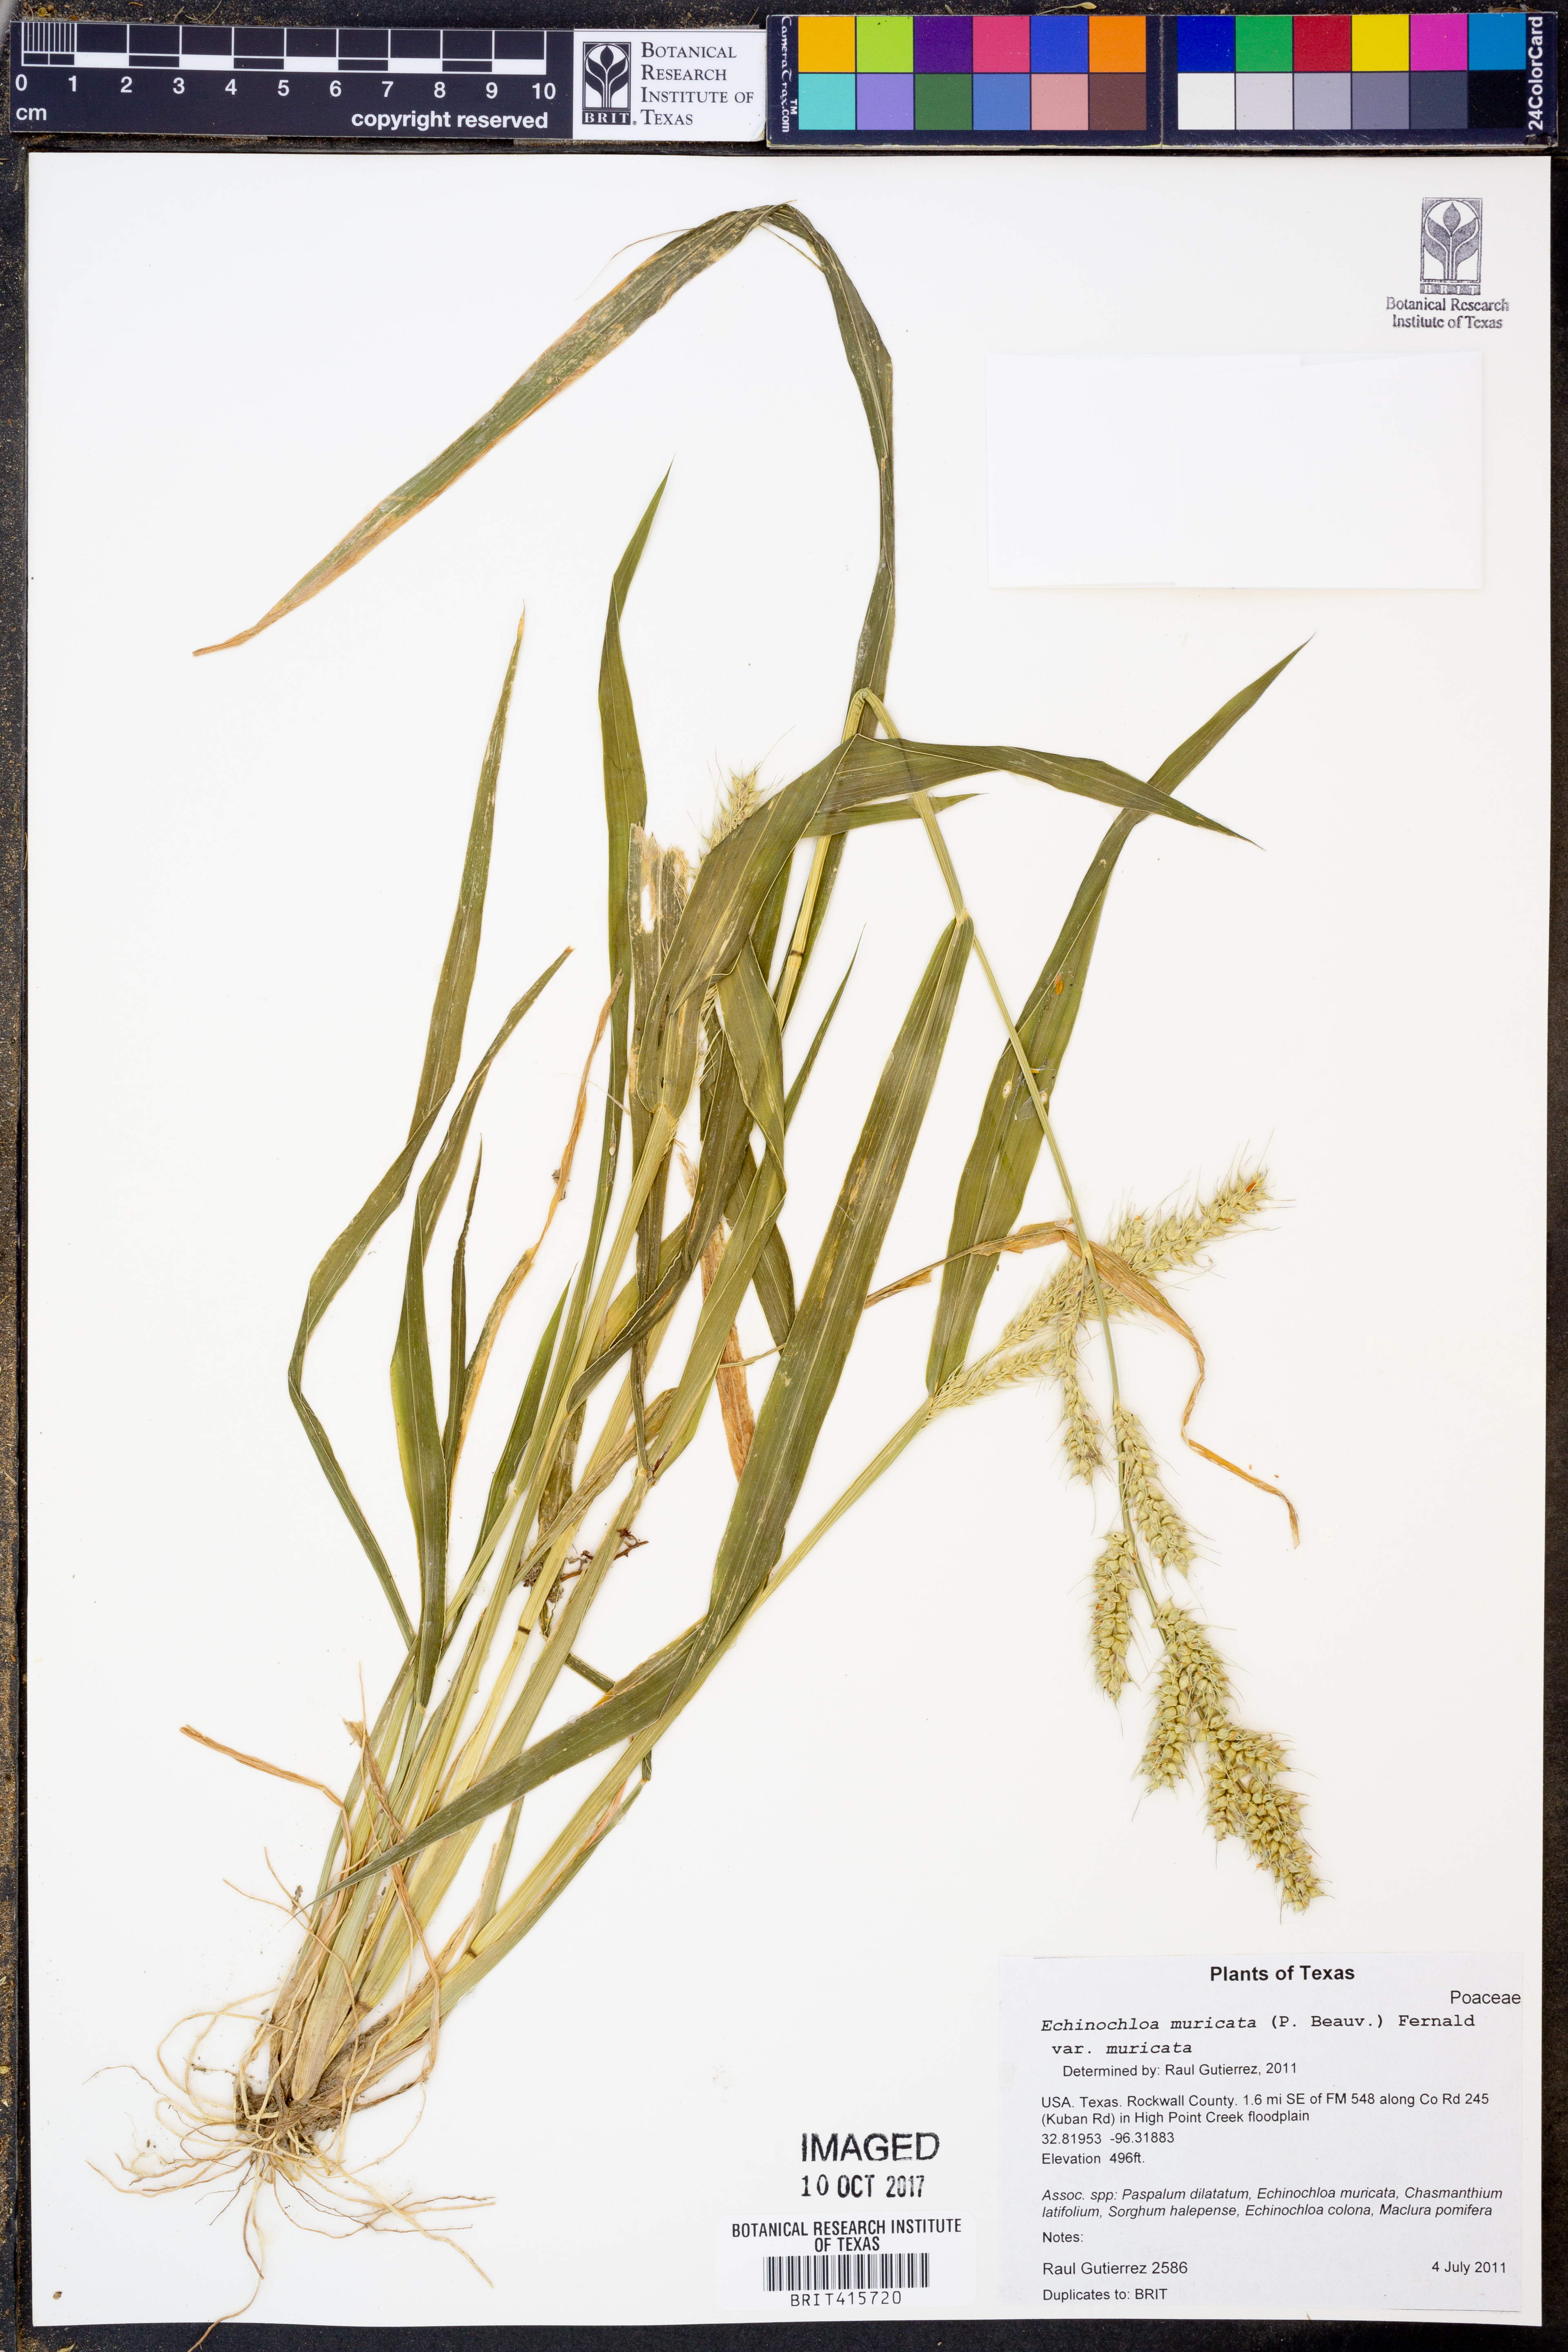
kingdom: Plantae
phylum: Tracheophyta
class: Liliopsida
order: Poales
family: Poaceae
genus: Echinochloa
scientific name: Echinochloa muricata
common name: American barnyard grass
